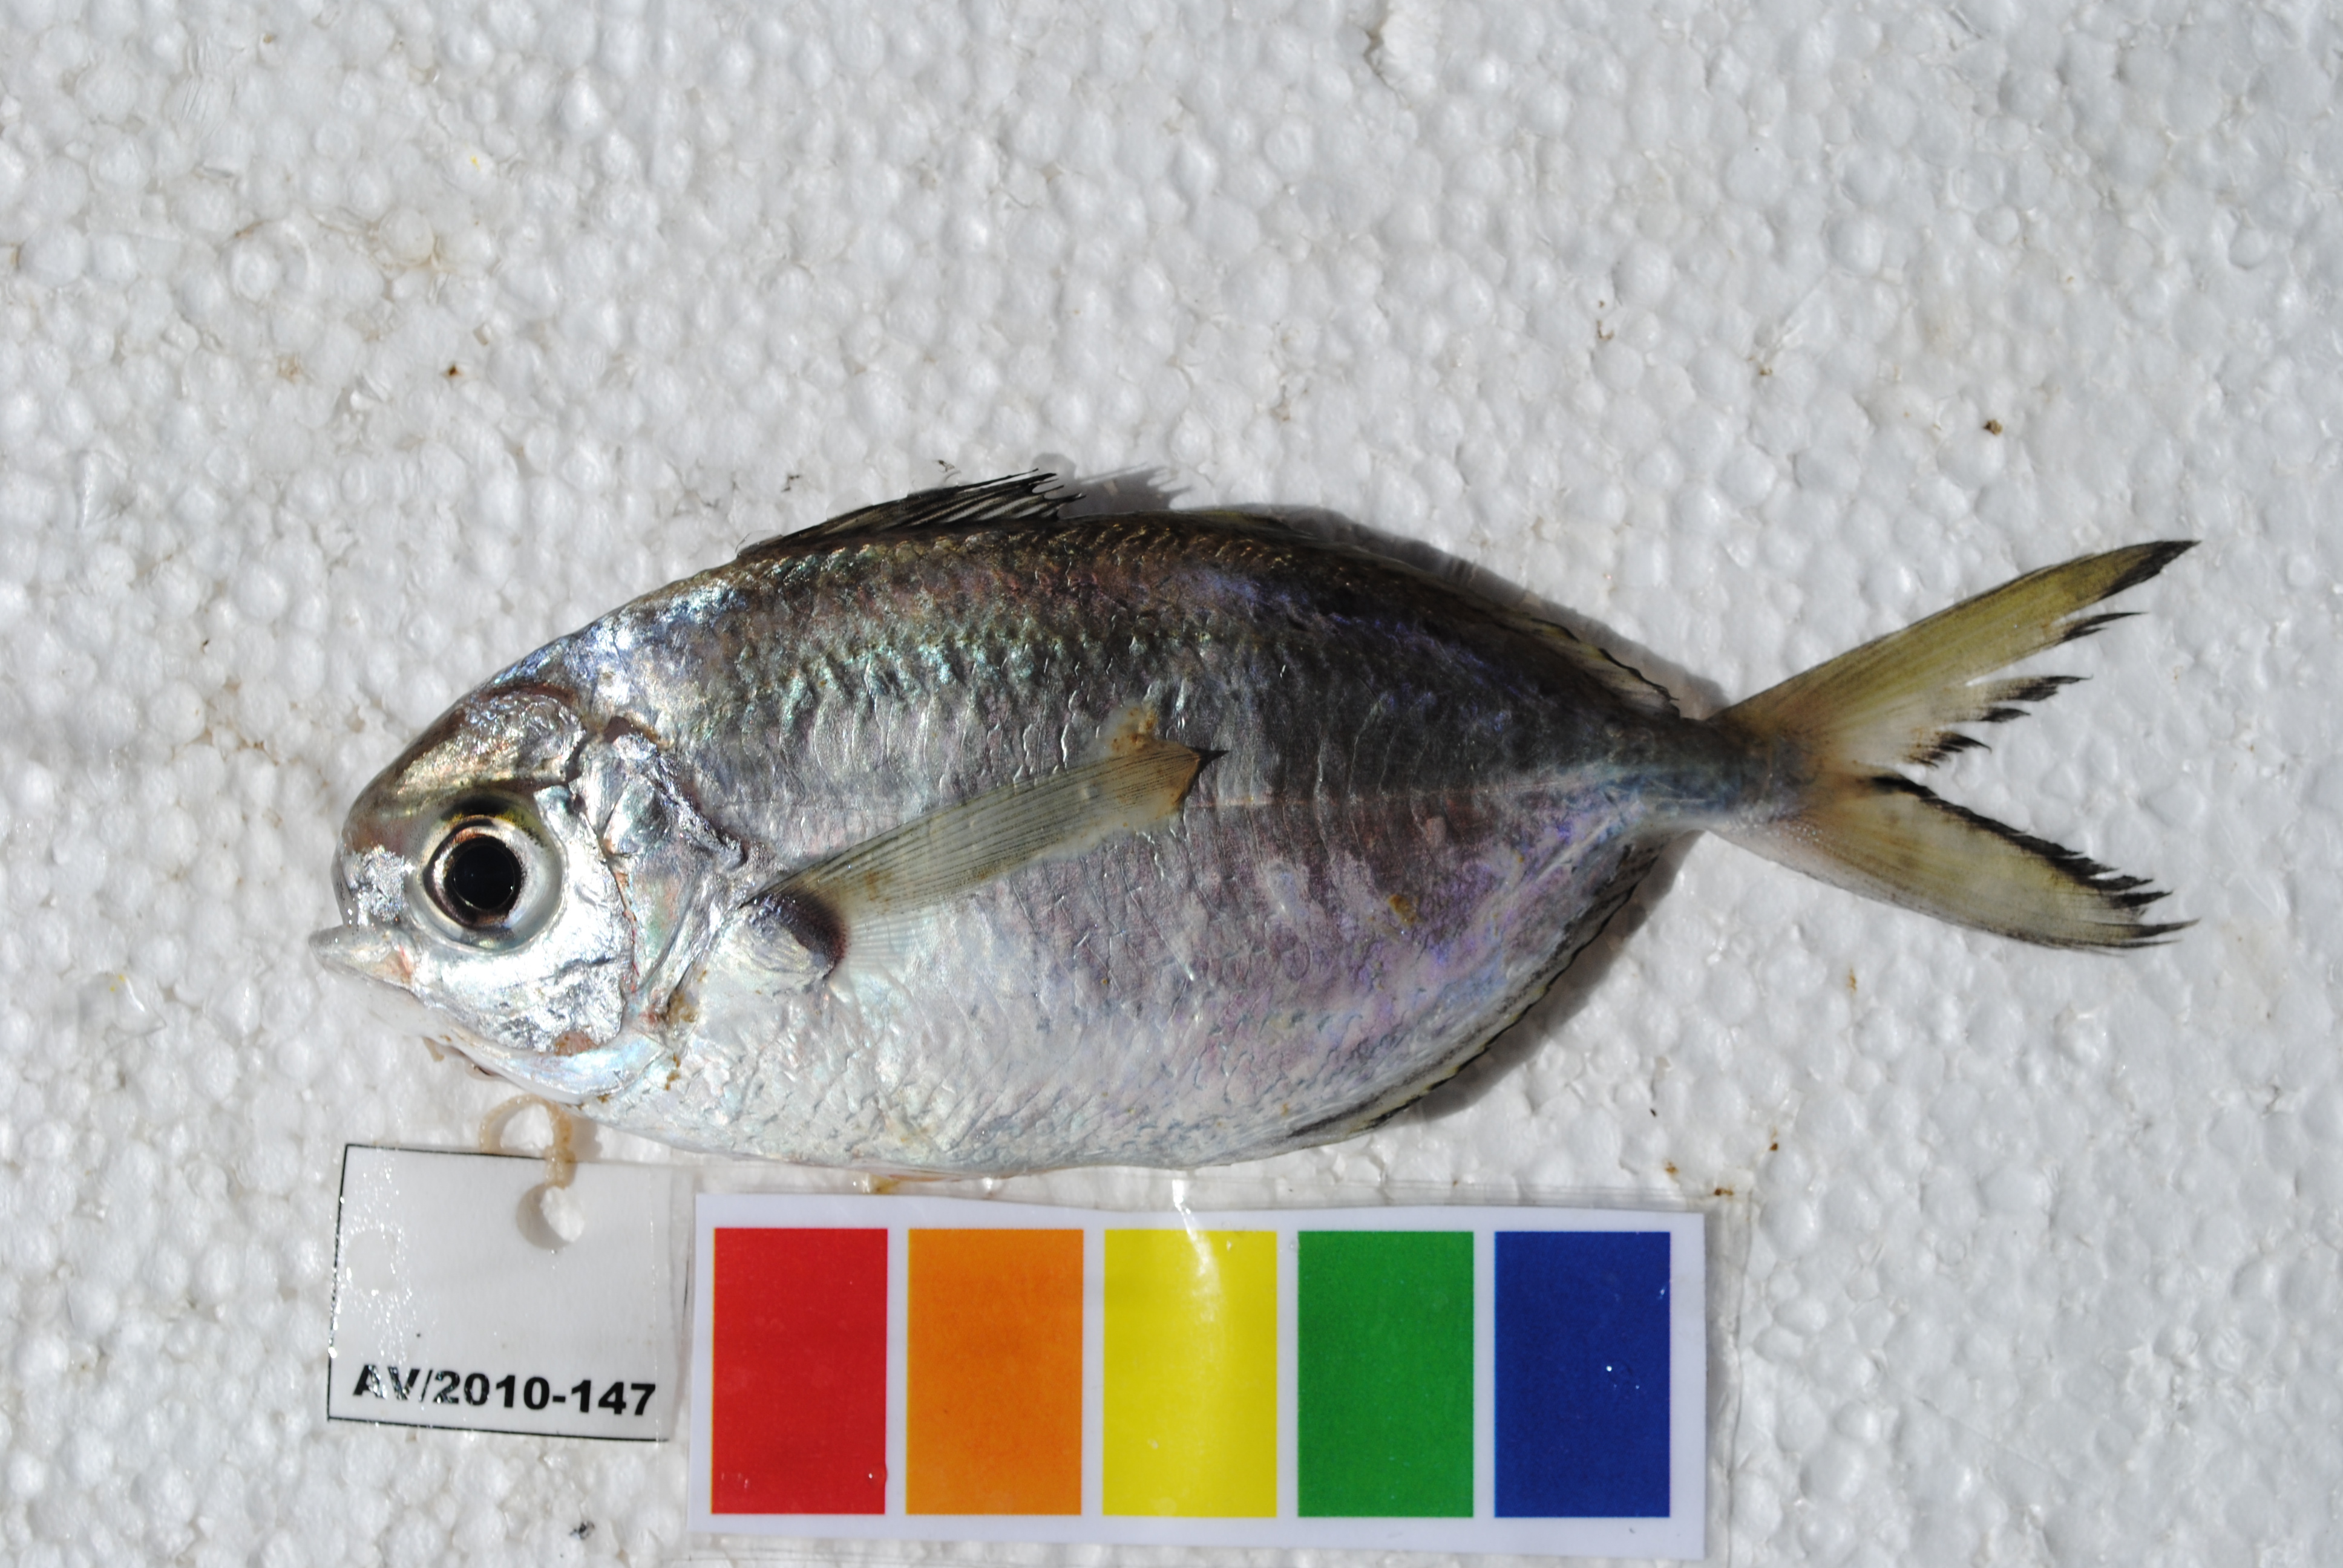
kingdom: Animalia
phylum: Chordata
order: Perciformes
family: Ariommatidae
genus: Ariomma
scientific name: Ariomma indicum
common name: Indian driftfish
